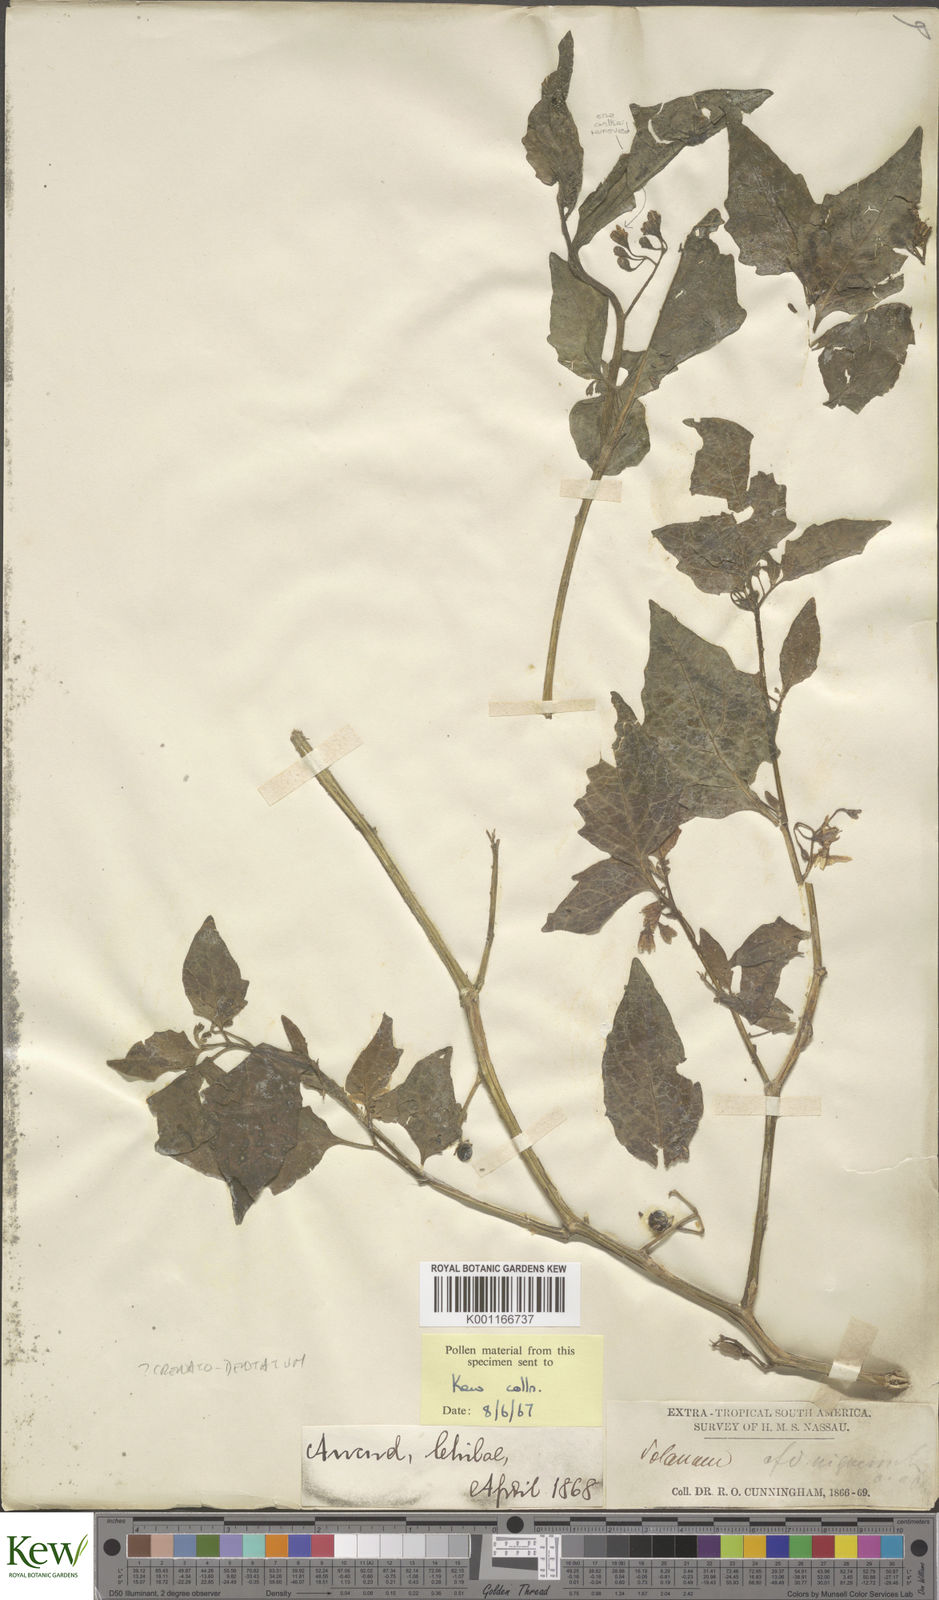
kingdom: Plantae
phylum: Tracheophyta
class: Magnoliopsida
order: Solanales
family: Solanaceae
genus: Solanum
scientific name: Solanum
